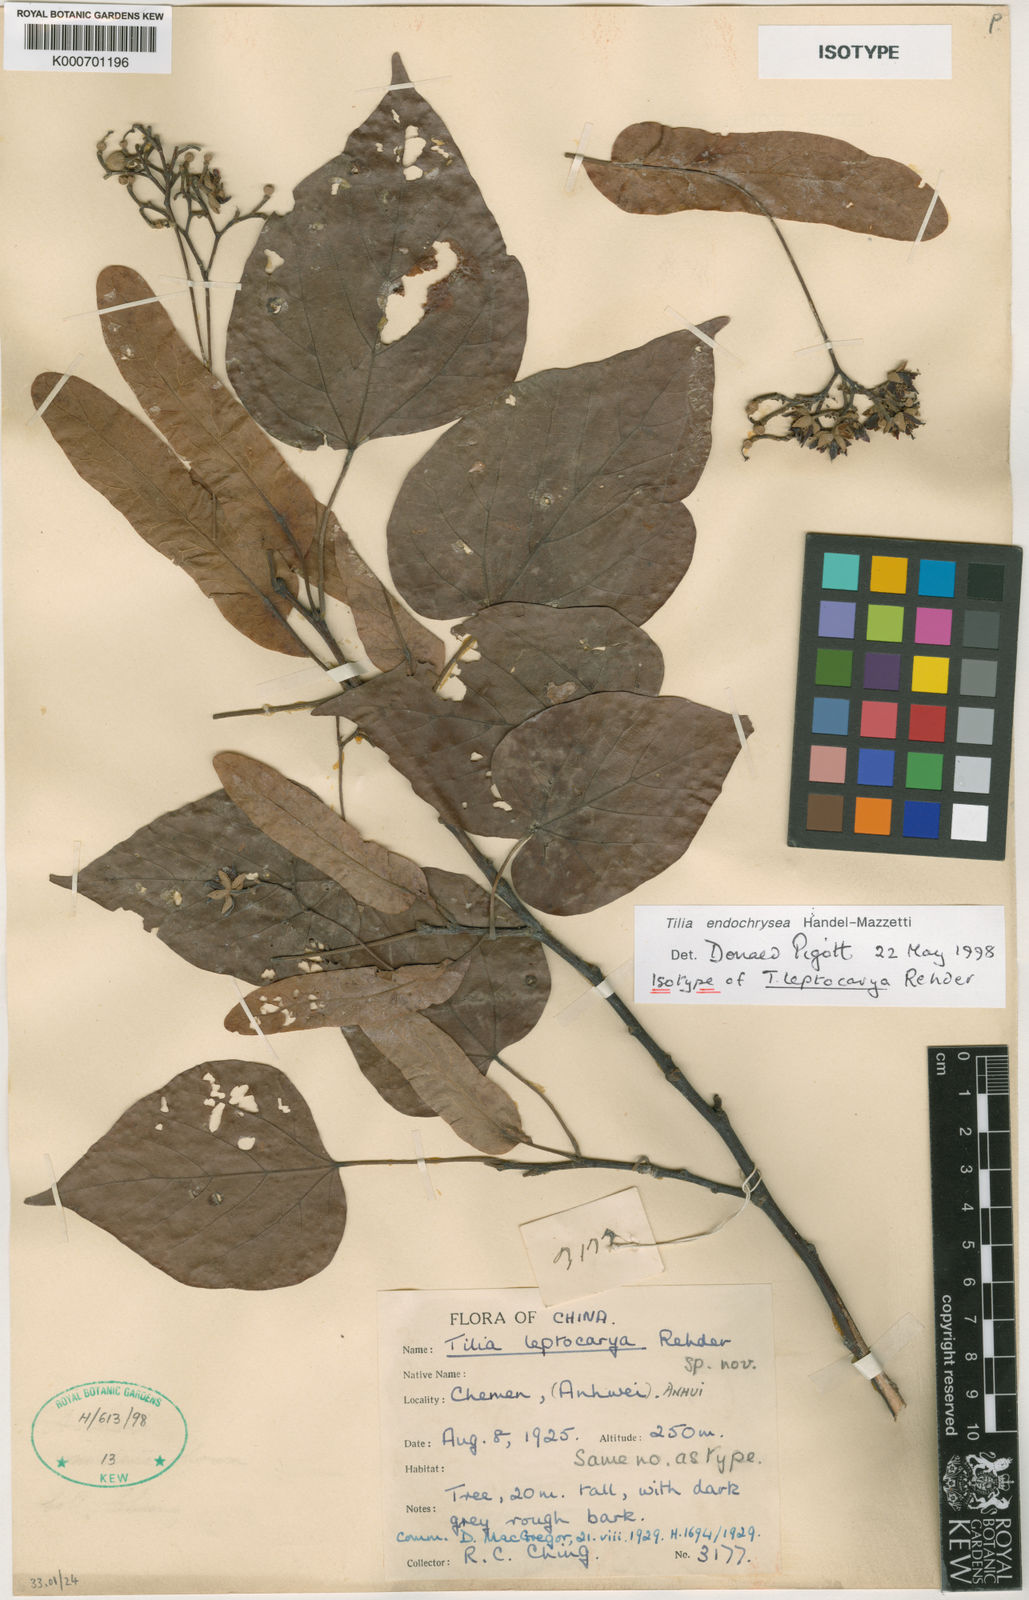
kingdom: Plantae
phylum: Tracheophyta
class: Magnoliopsida
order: Malvales
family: Malvaceae
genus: Tilia
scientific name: Tilia endochrysea
